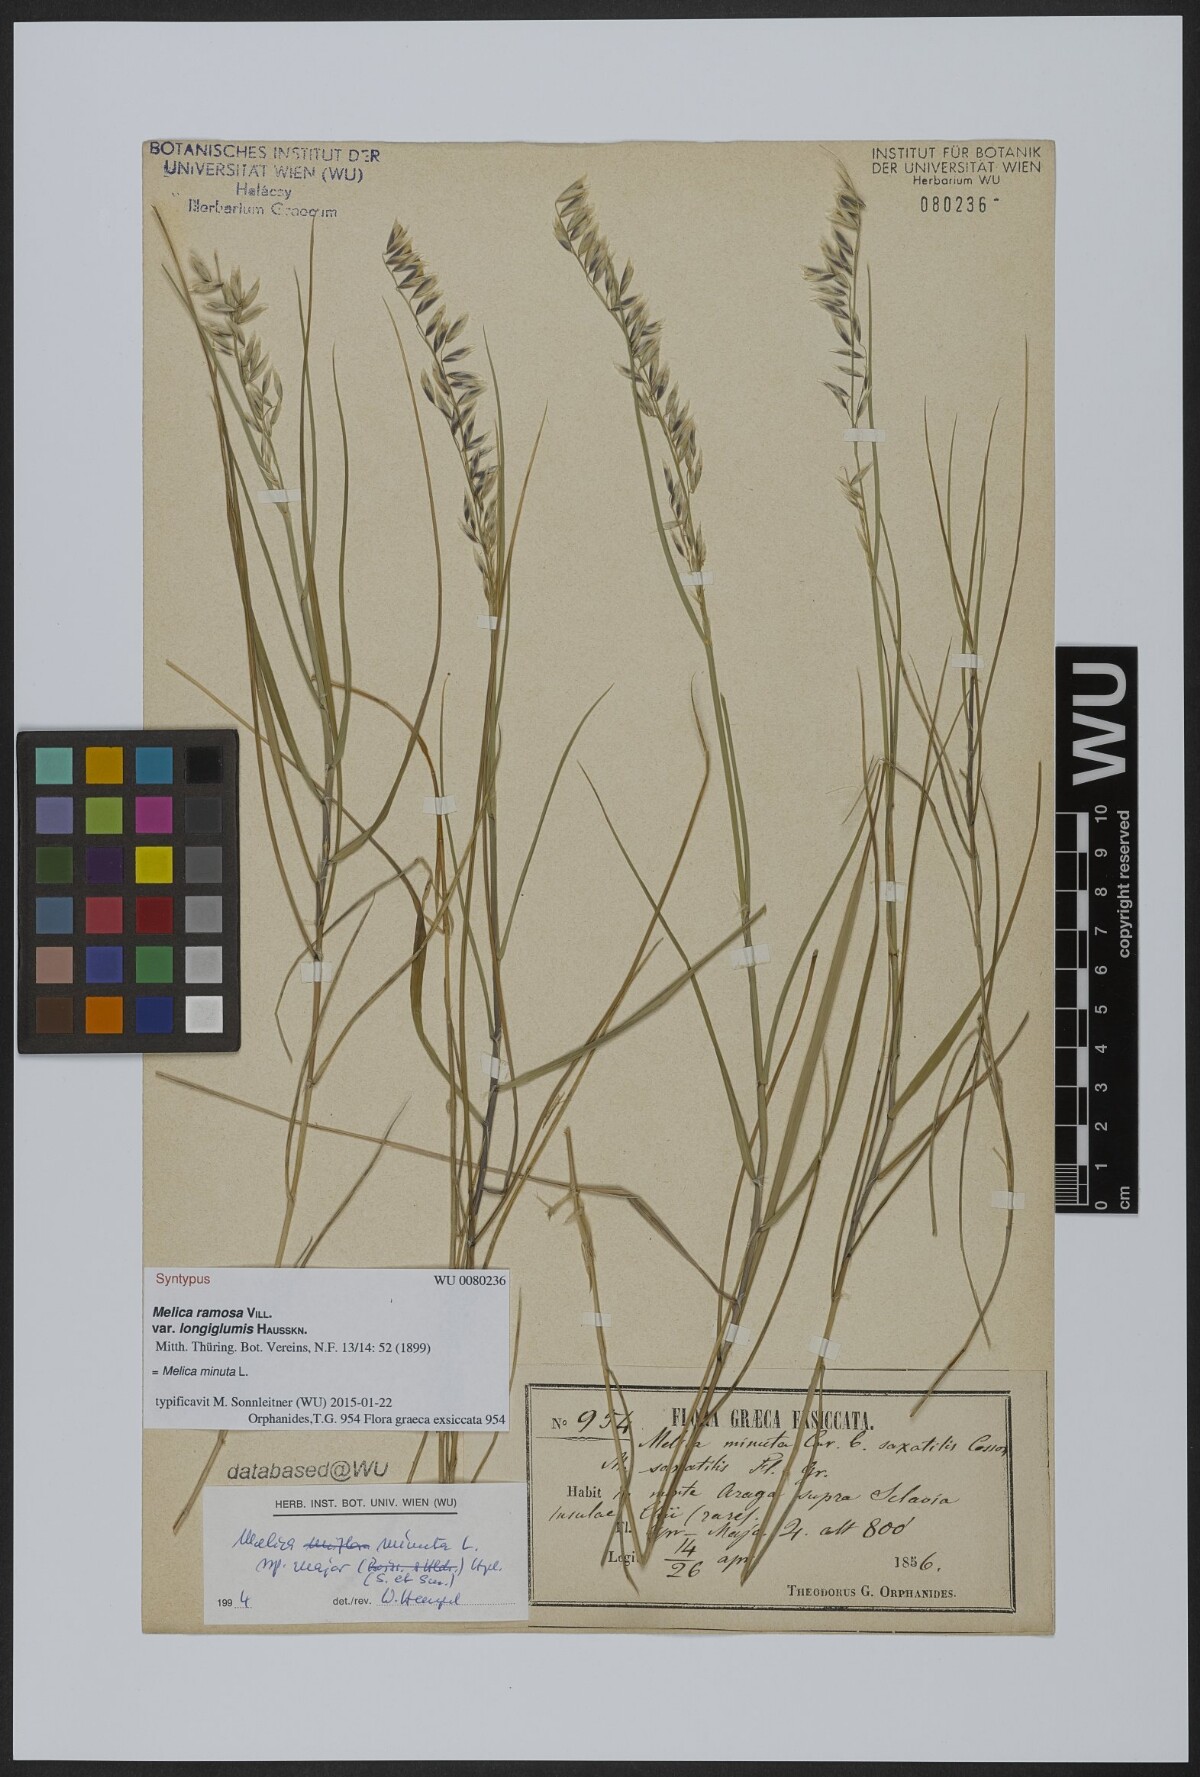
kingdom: Plantae
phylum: Tracheophyta
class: Liliopsida
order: Poales
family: Poaceae
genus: Melica
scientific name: Melica minuta
